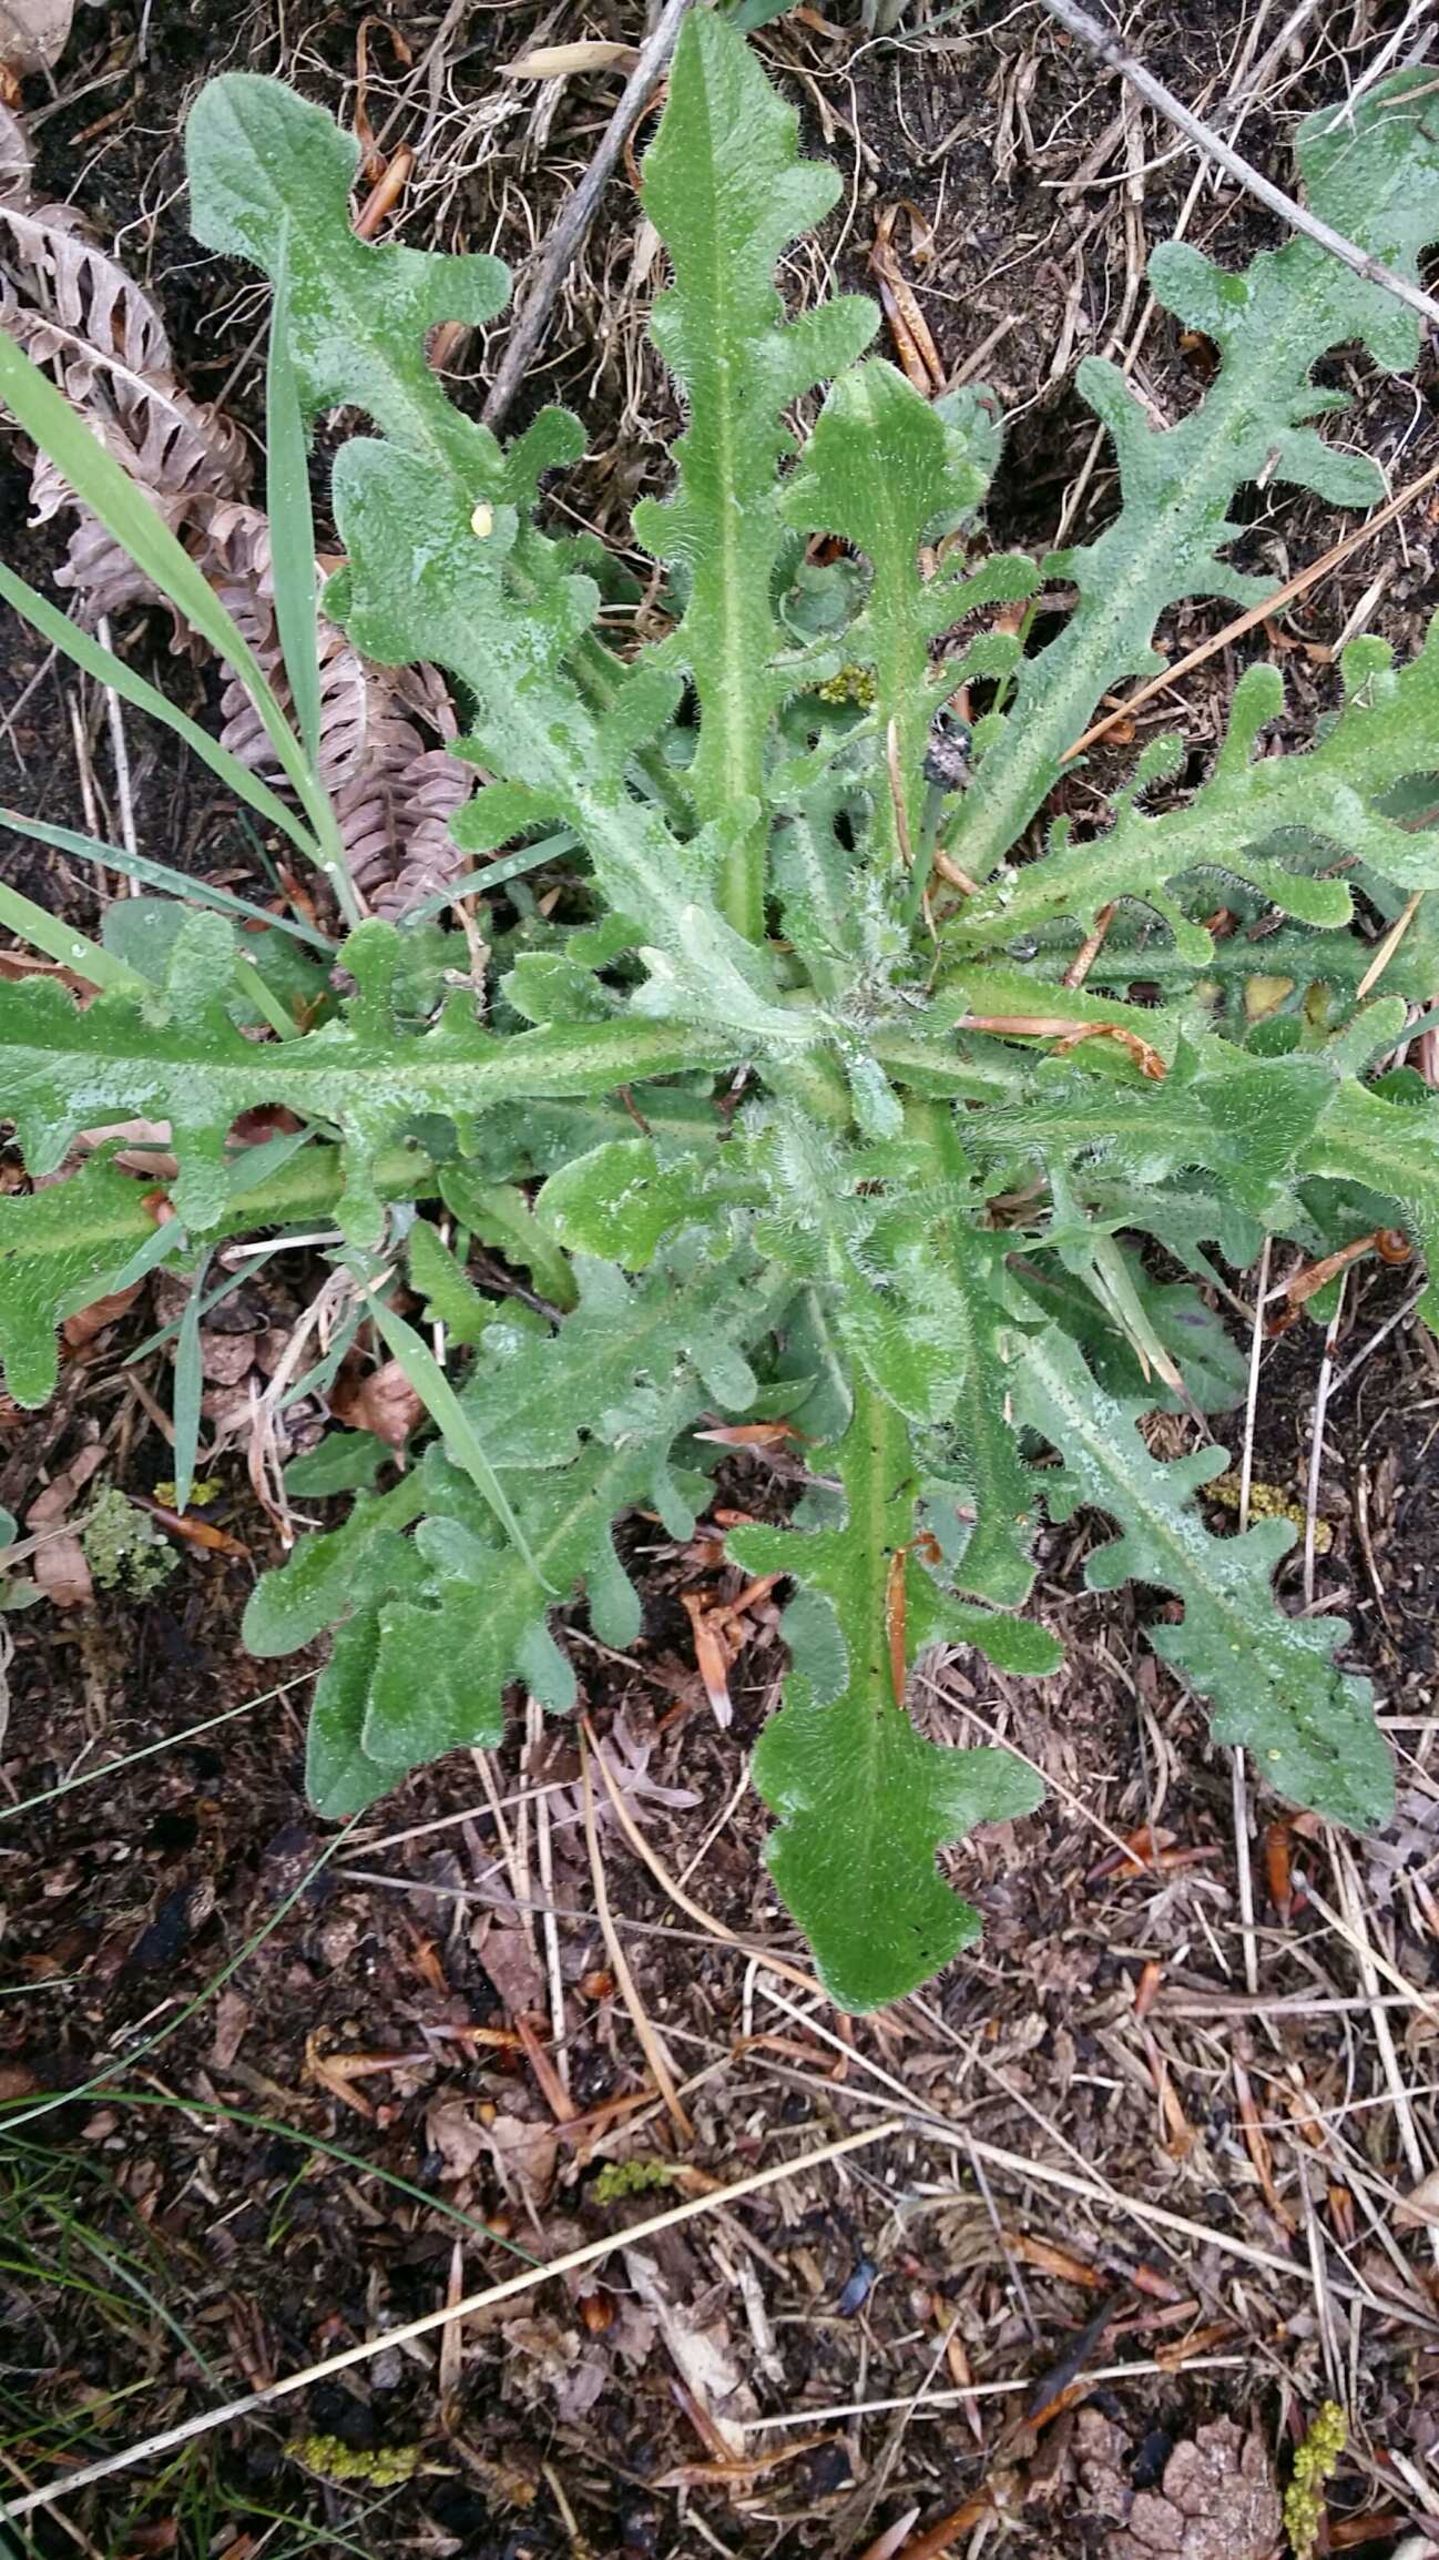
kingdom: Plantae
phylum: Tracheophyta
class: Magnoliopsida
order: Asterales
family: Asteraceae
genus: Hypochaeris
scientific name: Hypochaeris radicata
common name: Almindelig kongepen
